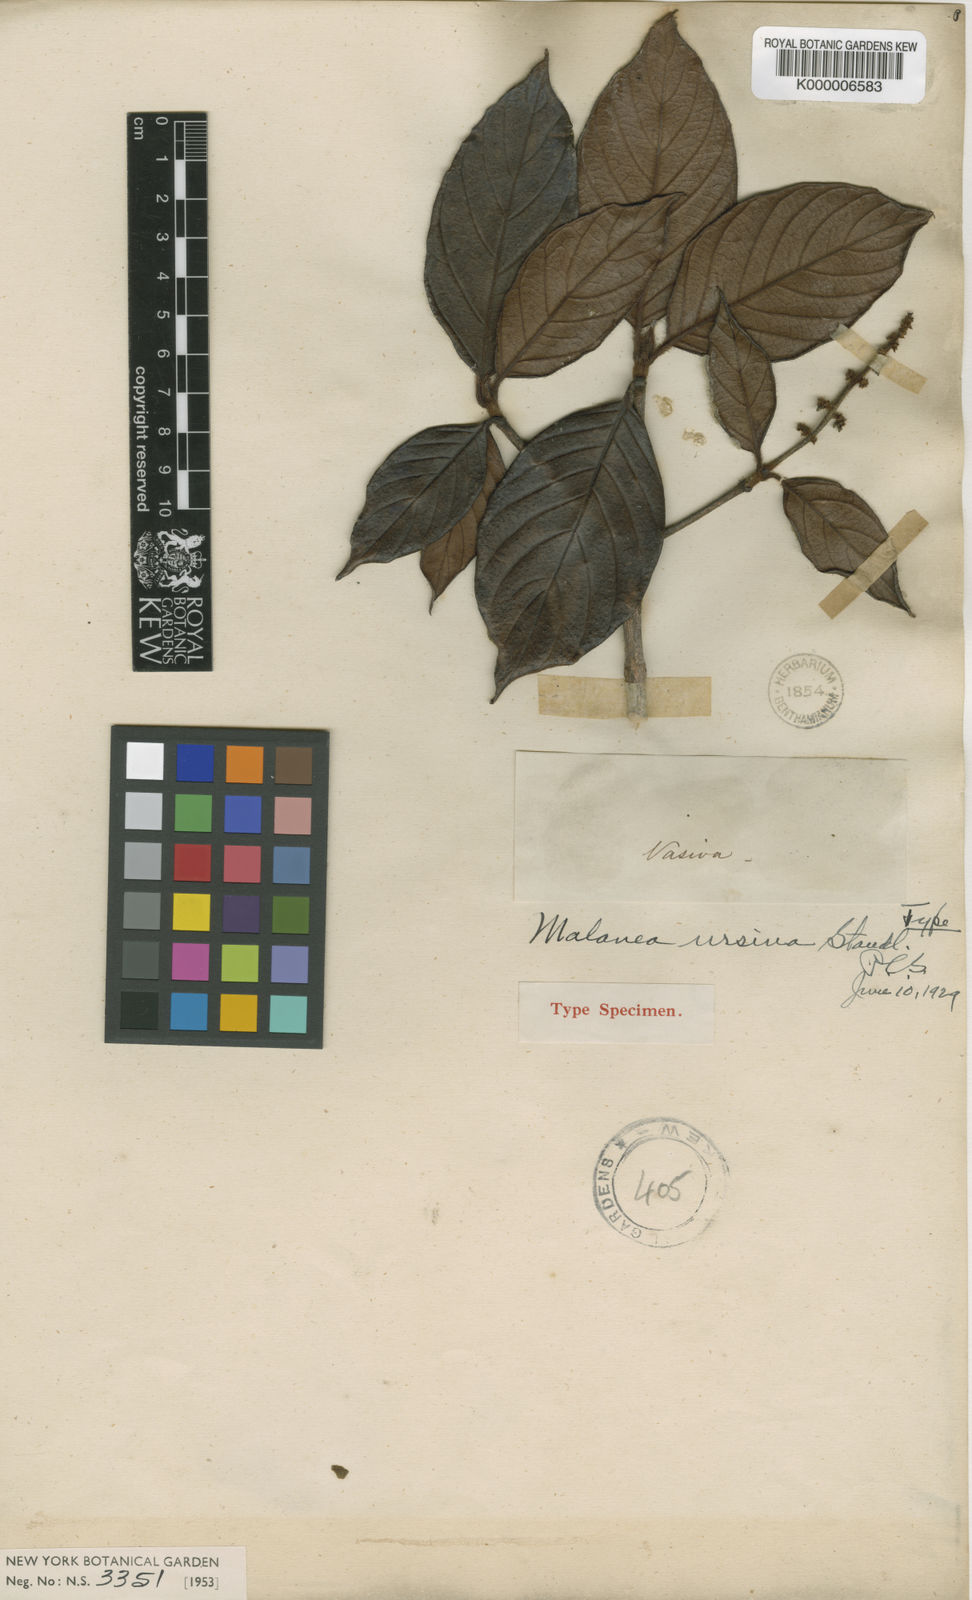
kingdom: Plantae
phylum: Tracheophyta
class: Magnoliopsida
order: Gentianales
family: Rubiaceae
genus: Malanea
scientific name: Malanea ursina
